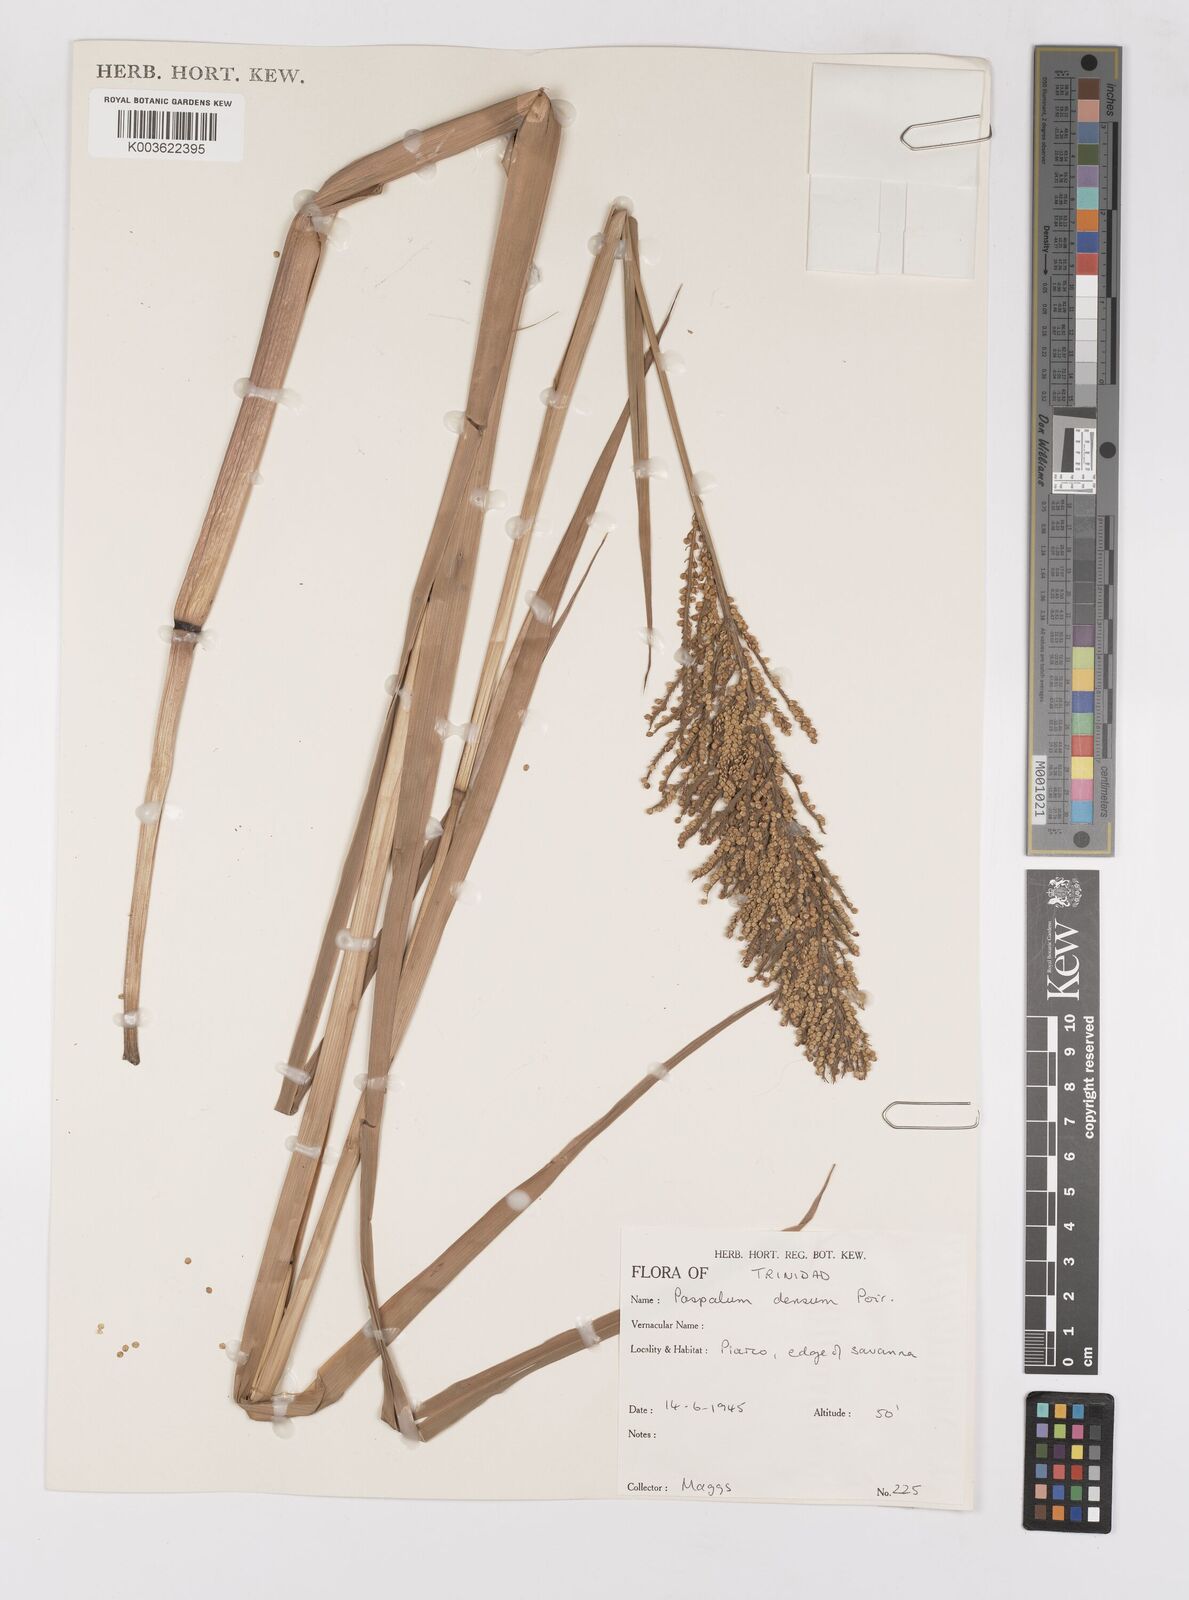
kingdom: Plantae
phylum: Tracheophyta
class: Liliopsida
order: Poales
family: Poaceae
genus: Paspalum
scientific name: Paspalum densum
